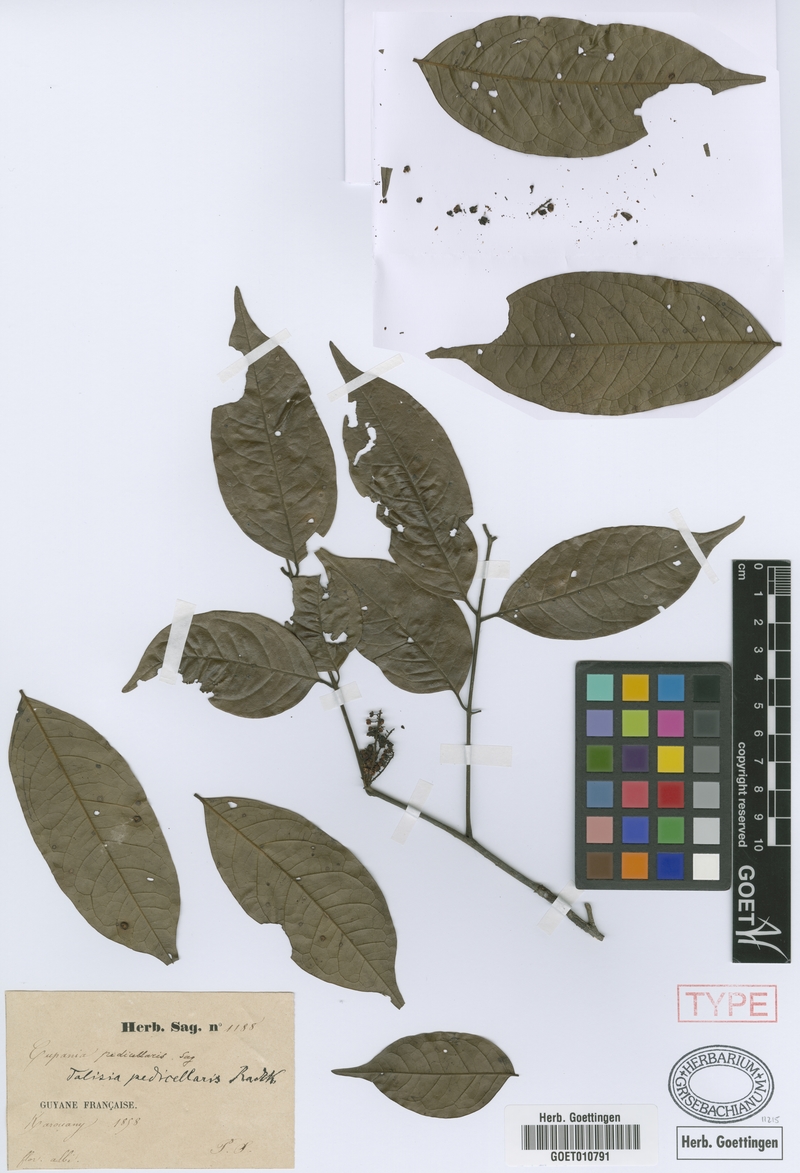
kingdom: Plantae
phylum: Tracheophyta
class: Magnoliopsida
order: Sapindales
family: Sapindaceae
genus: Melicoccus
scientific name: Melicoccus pedicellaris
